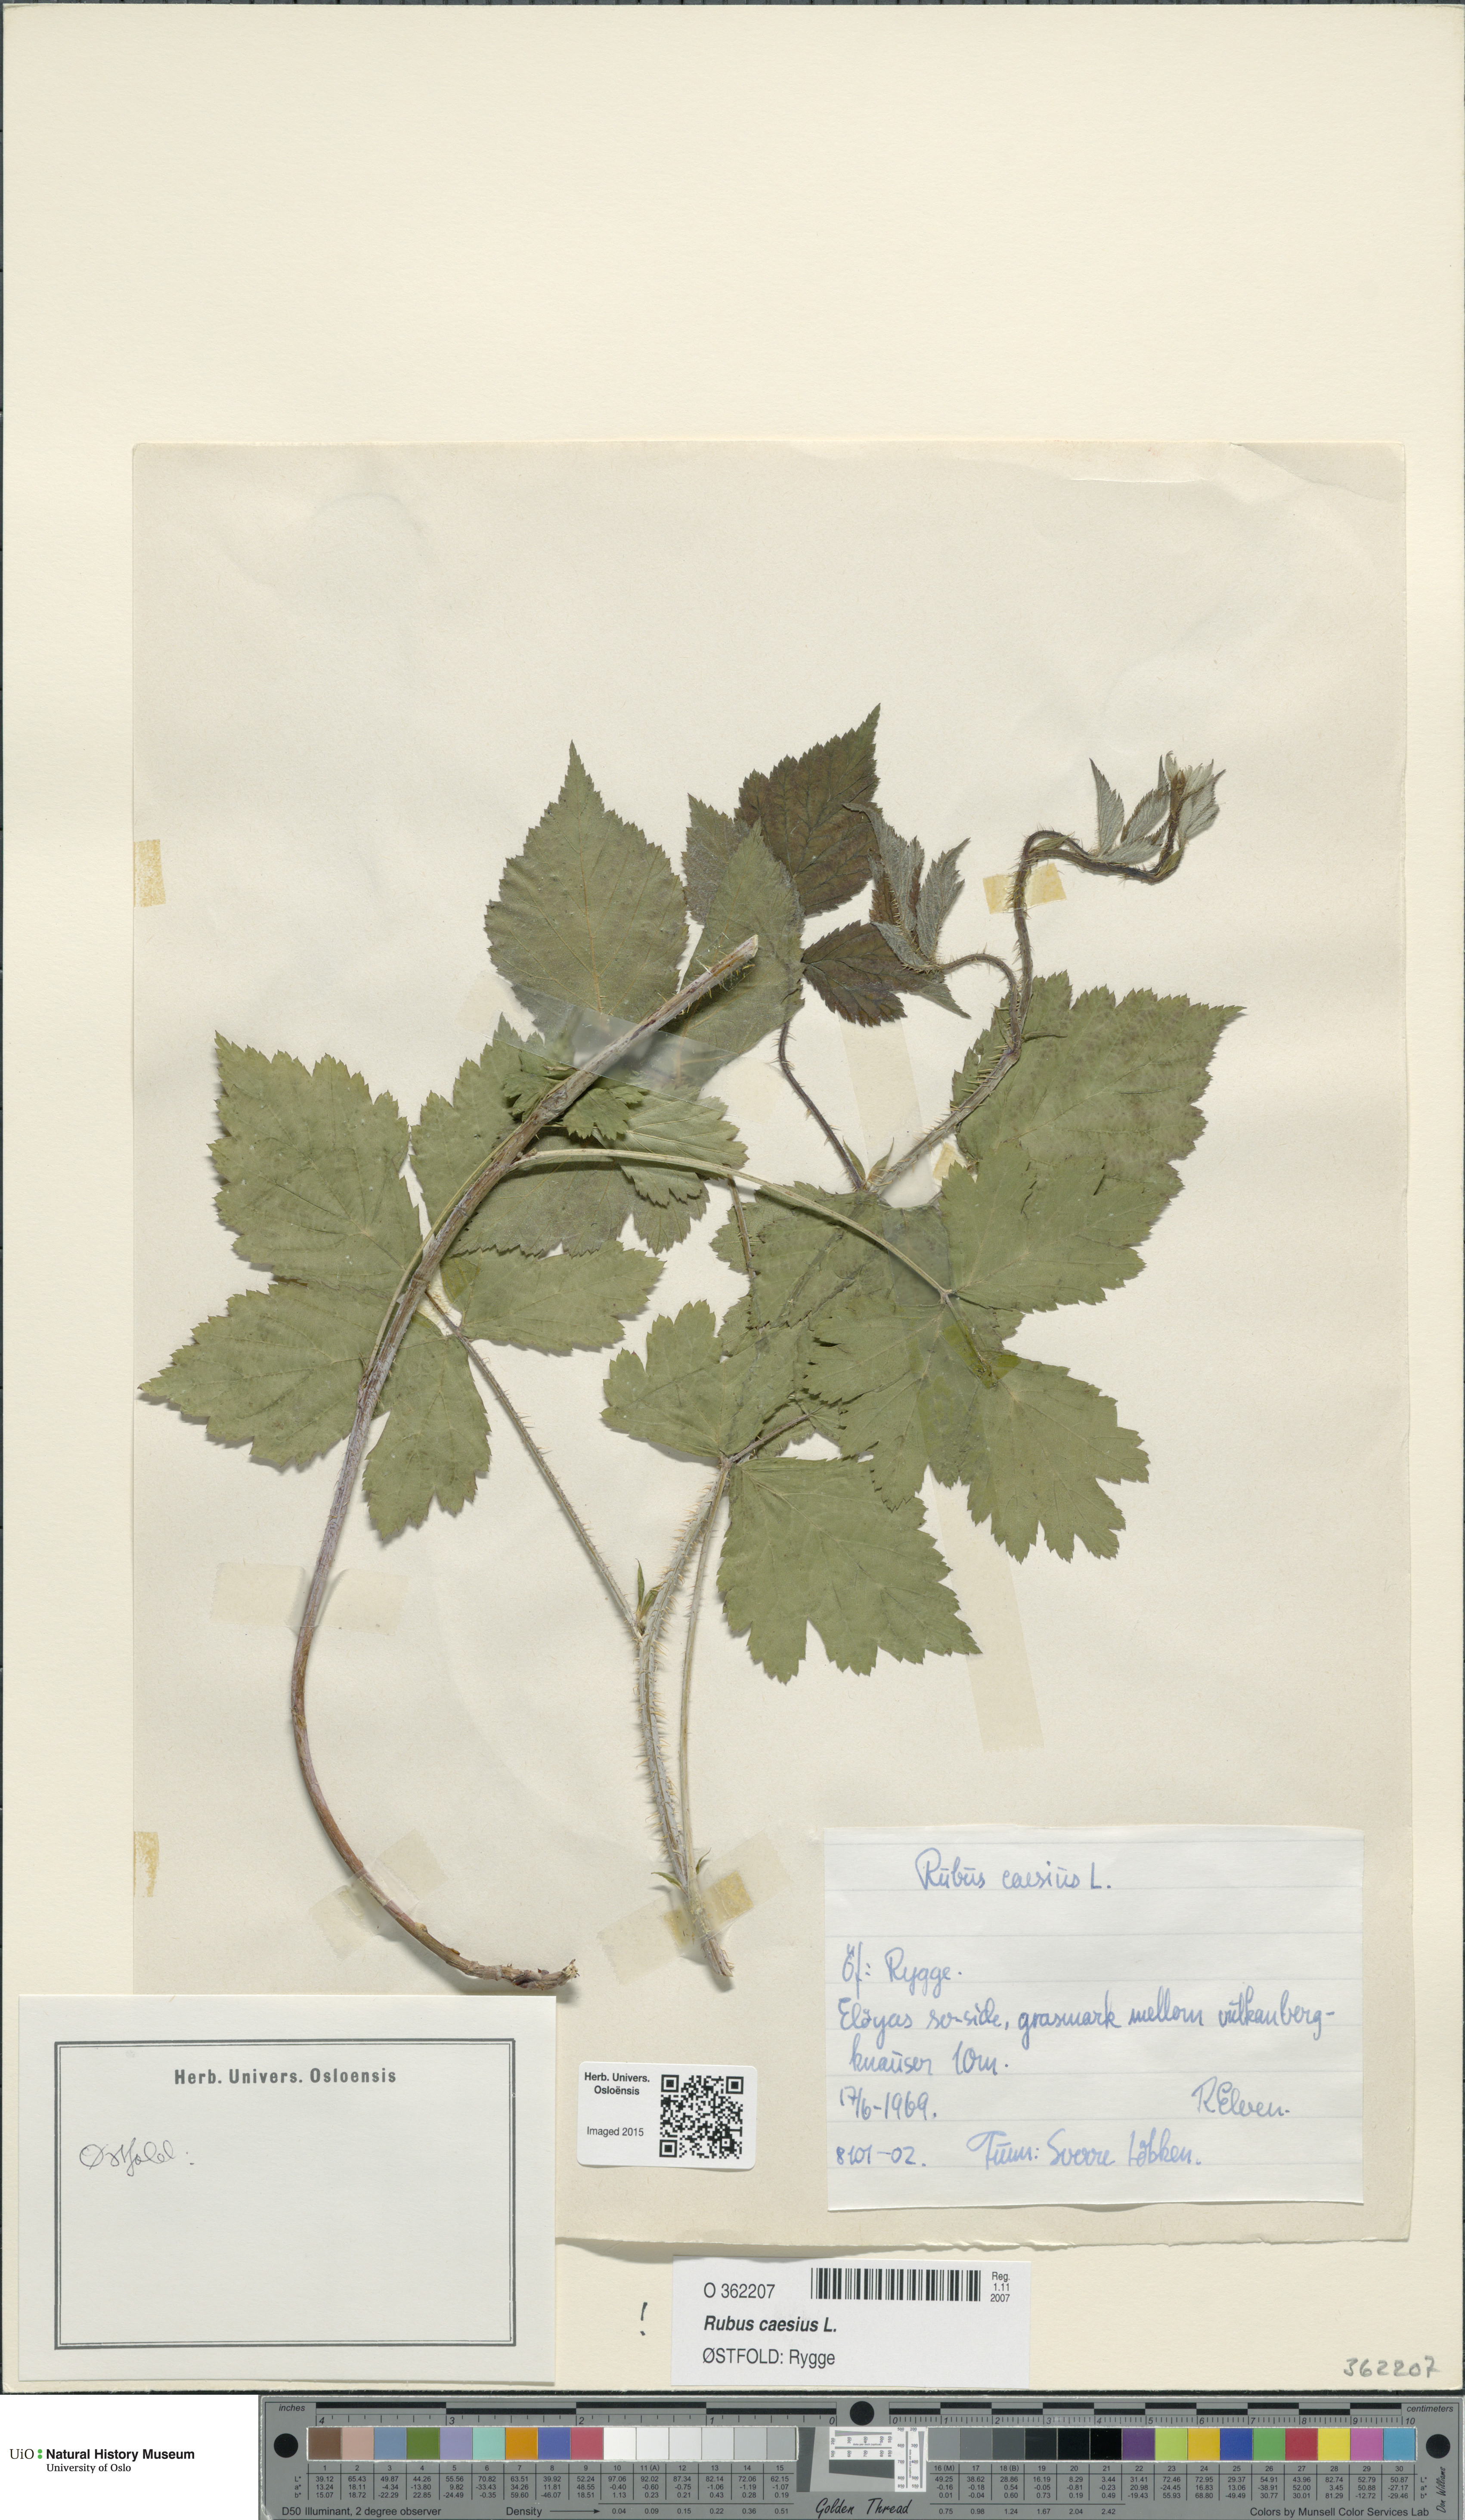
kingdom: Plantae
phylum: Tracheophyta
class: Magnoliopsida
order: Rosales
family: Rosaceae
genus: Rubus
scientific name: Rubus caesius
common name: Dewberry
